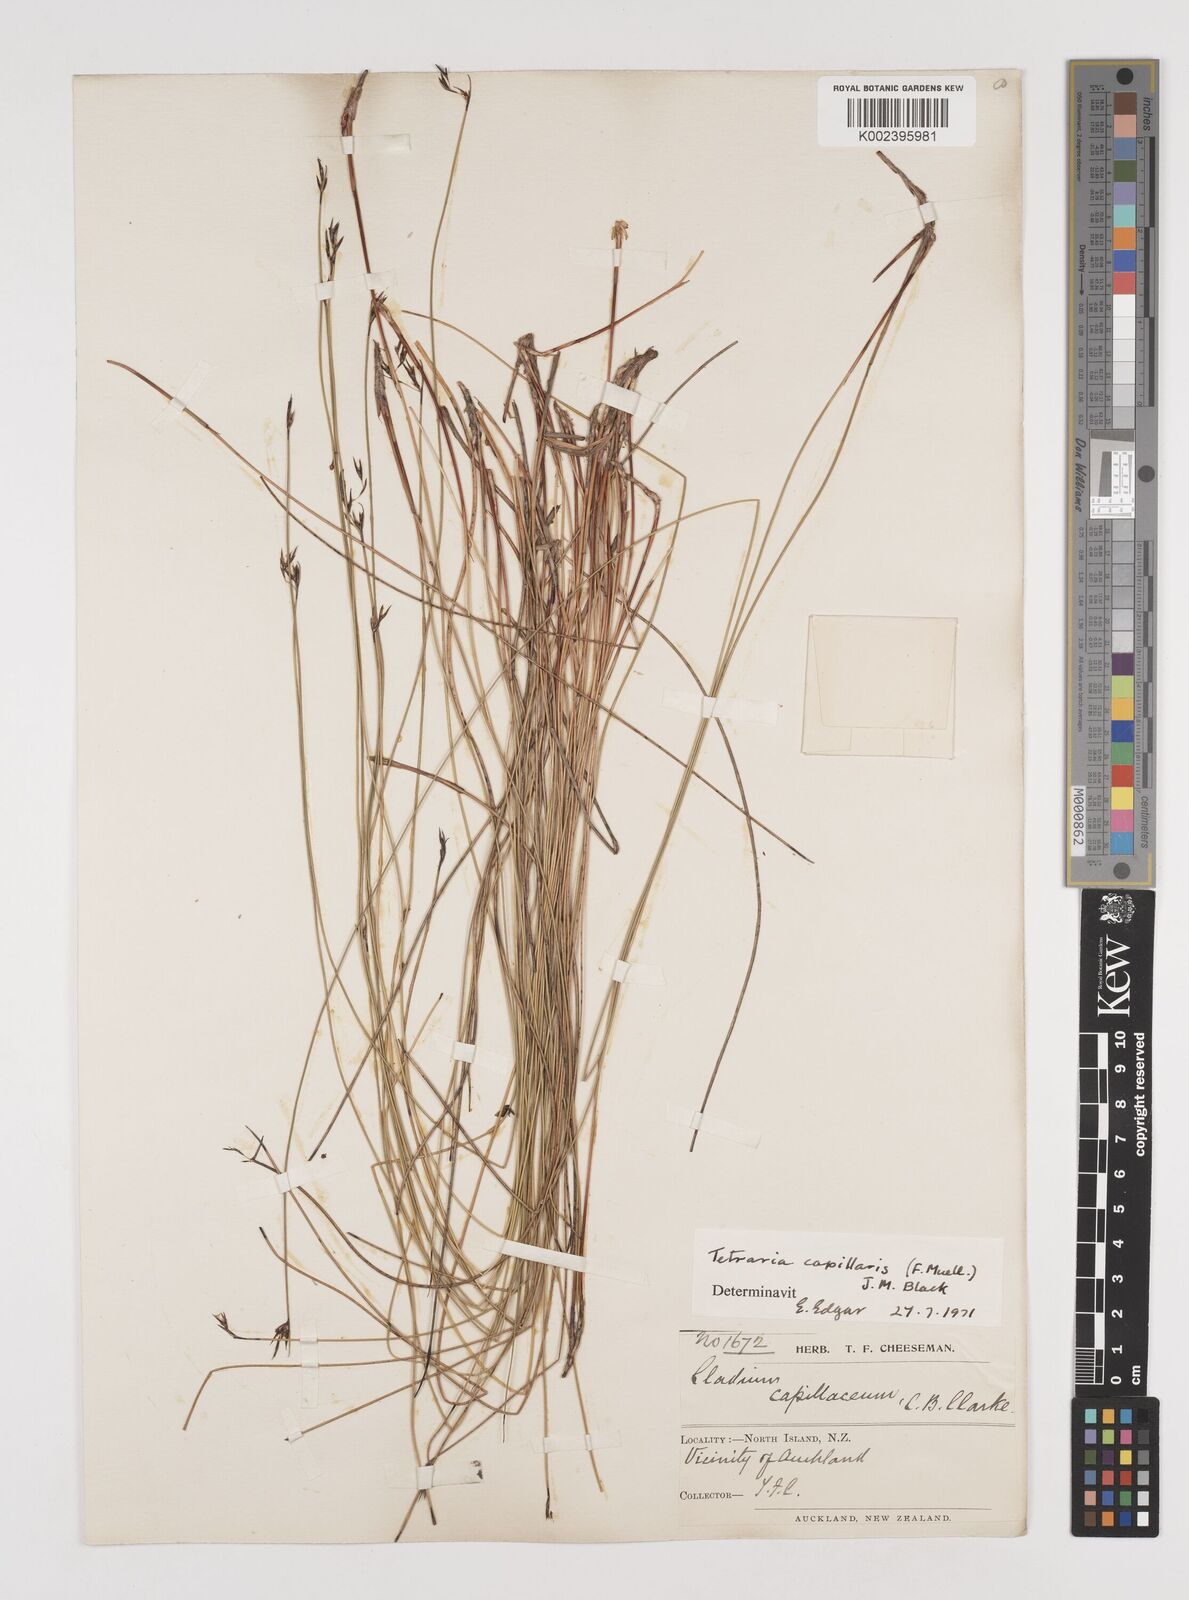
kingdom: Plantae
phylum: Tracheophyta
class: Liliopsida
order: Poales
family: Cyperaceae
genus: Tetraria
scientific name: Tetraria capillaris
